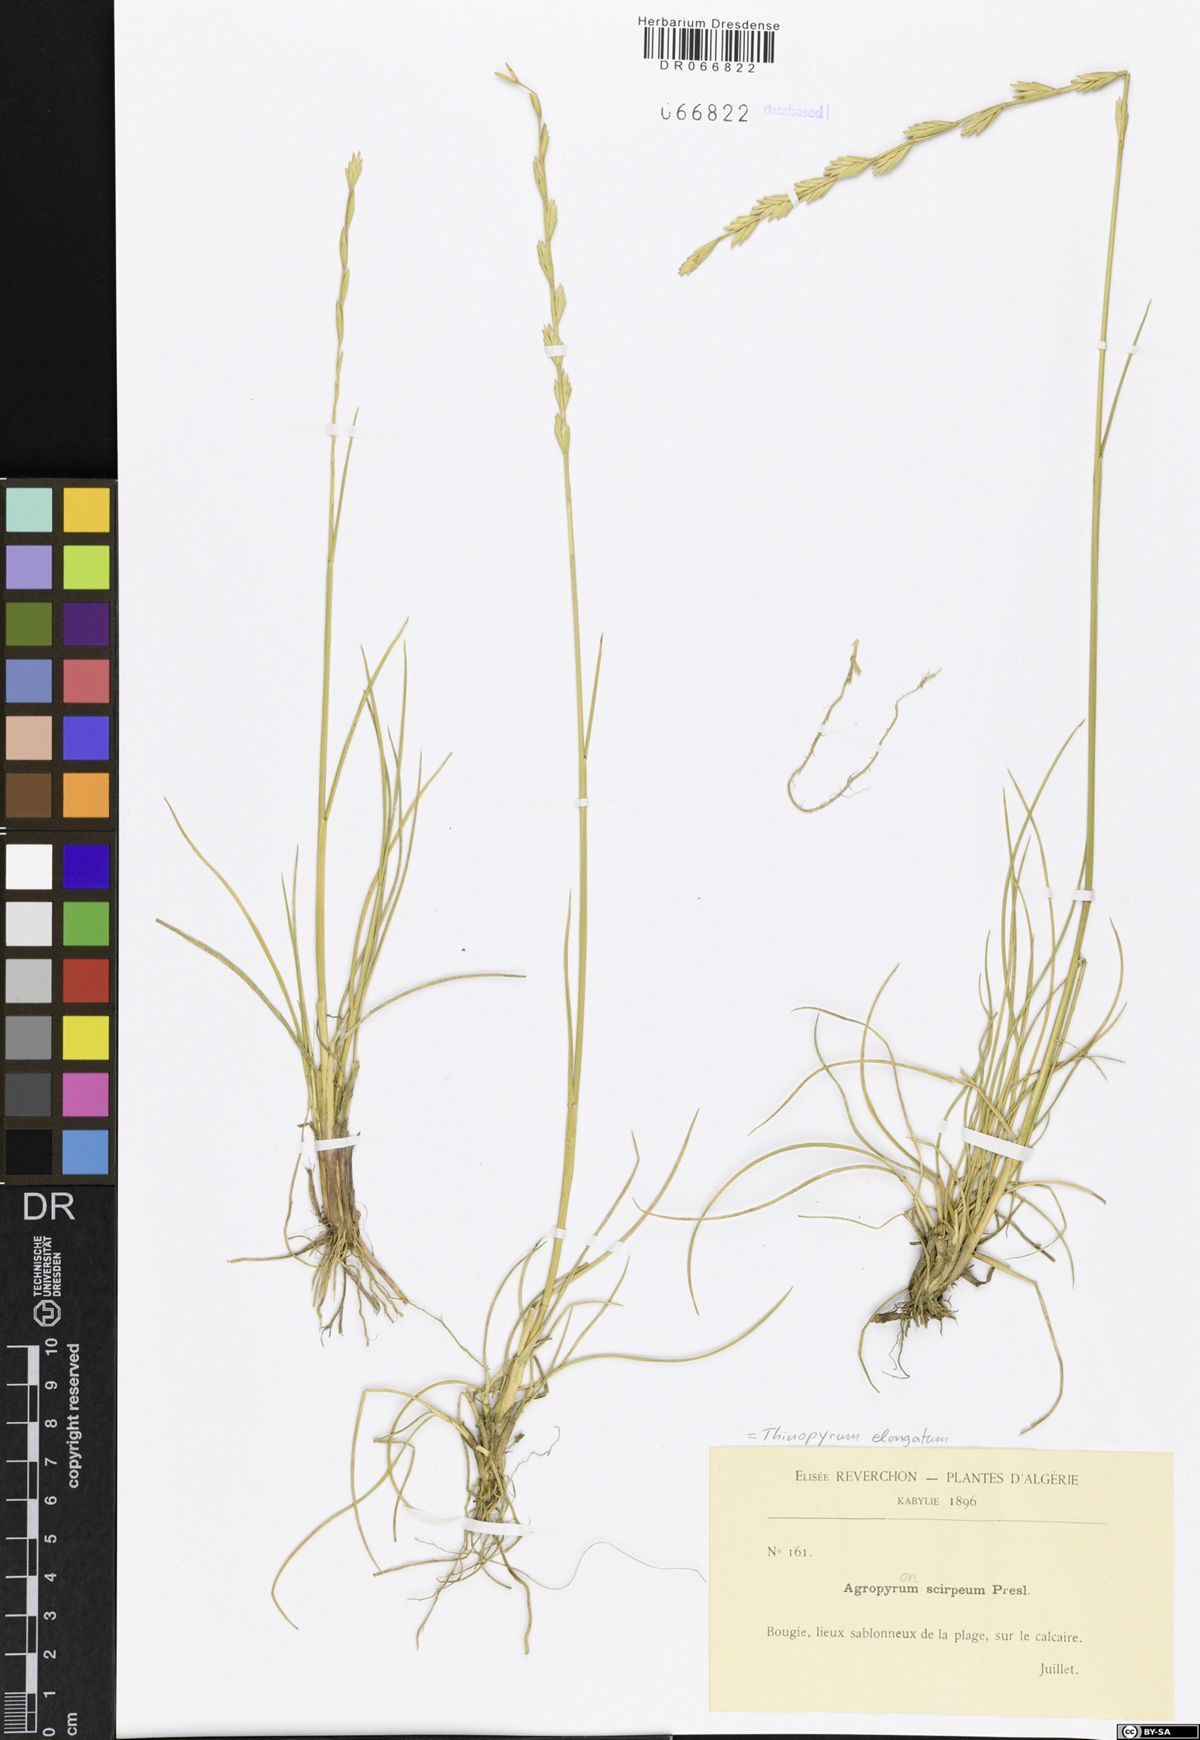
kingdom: Plantae
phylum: Tracheophyta
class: Liliopsida
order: Poales
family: Poaceae
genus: Thinopyrum
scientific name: Thinopyrum elongatum
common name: Tall wheatgrass
